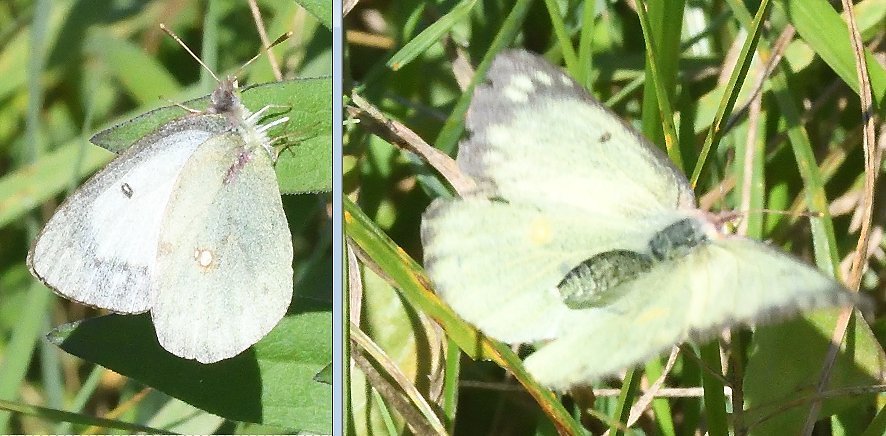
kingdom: Animalia
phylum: Arthropoda
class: Insecta
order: Lepidoptera
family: Pieridae
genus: Colias
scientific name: Colias
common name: Clouded Yellows
